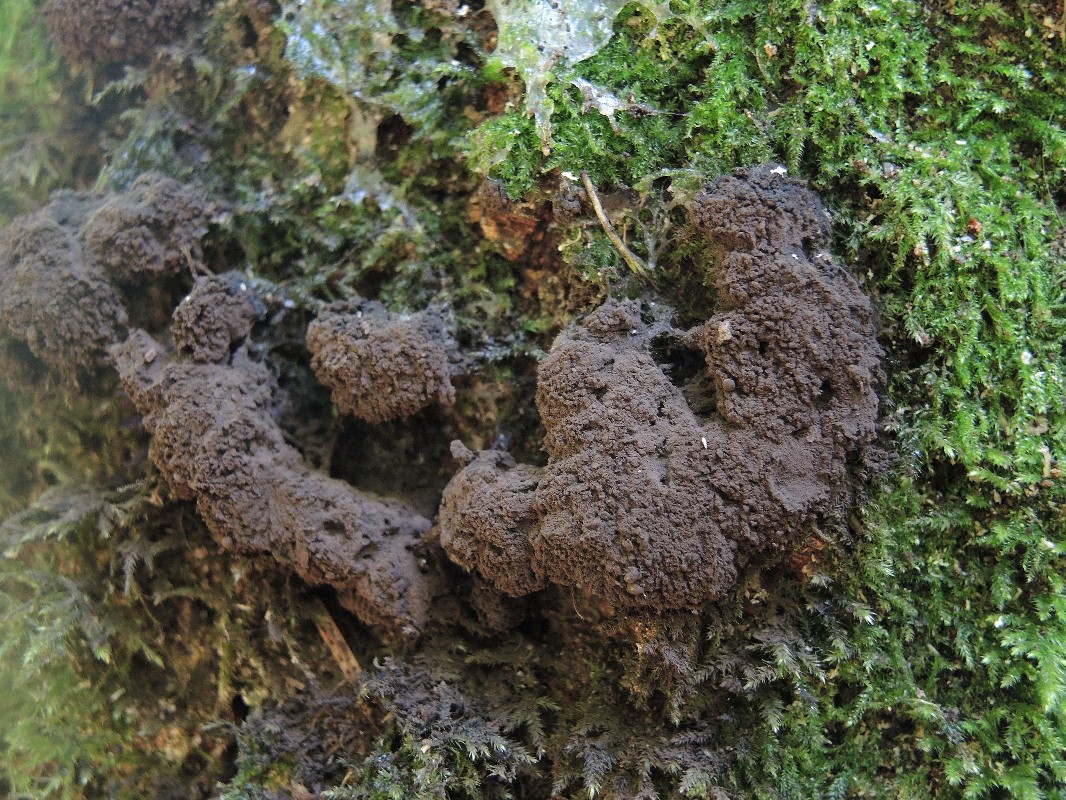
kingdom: Protozoa
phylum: Mycetozoa
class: Myxomycetes
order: Stemonitidales
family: Stemonitidaceae
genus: Symphytocarpus
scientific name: Symphytocarpus amaurochaetoides
